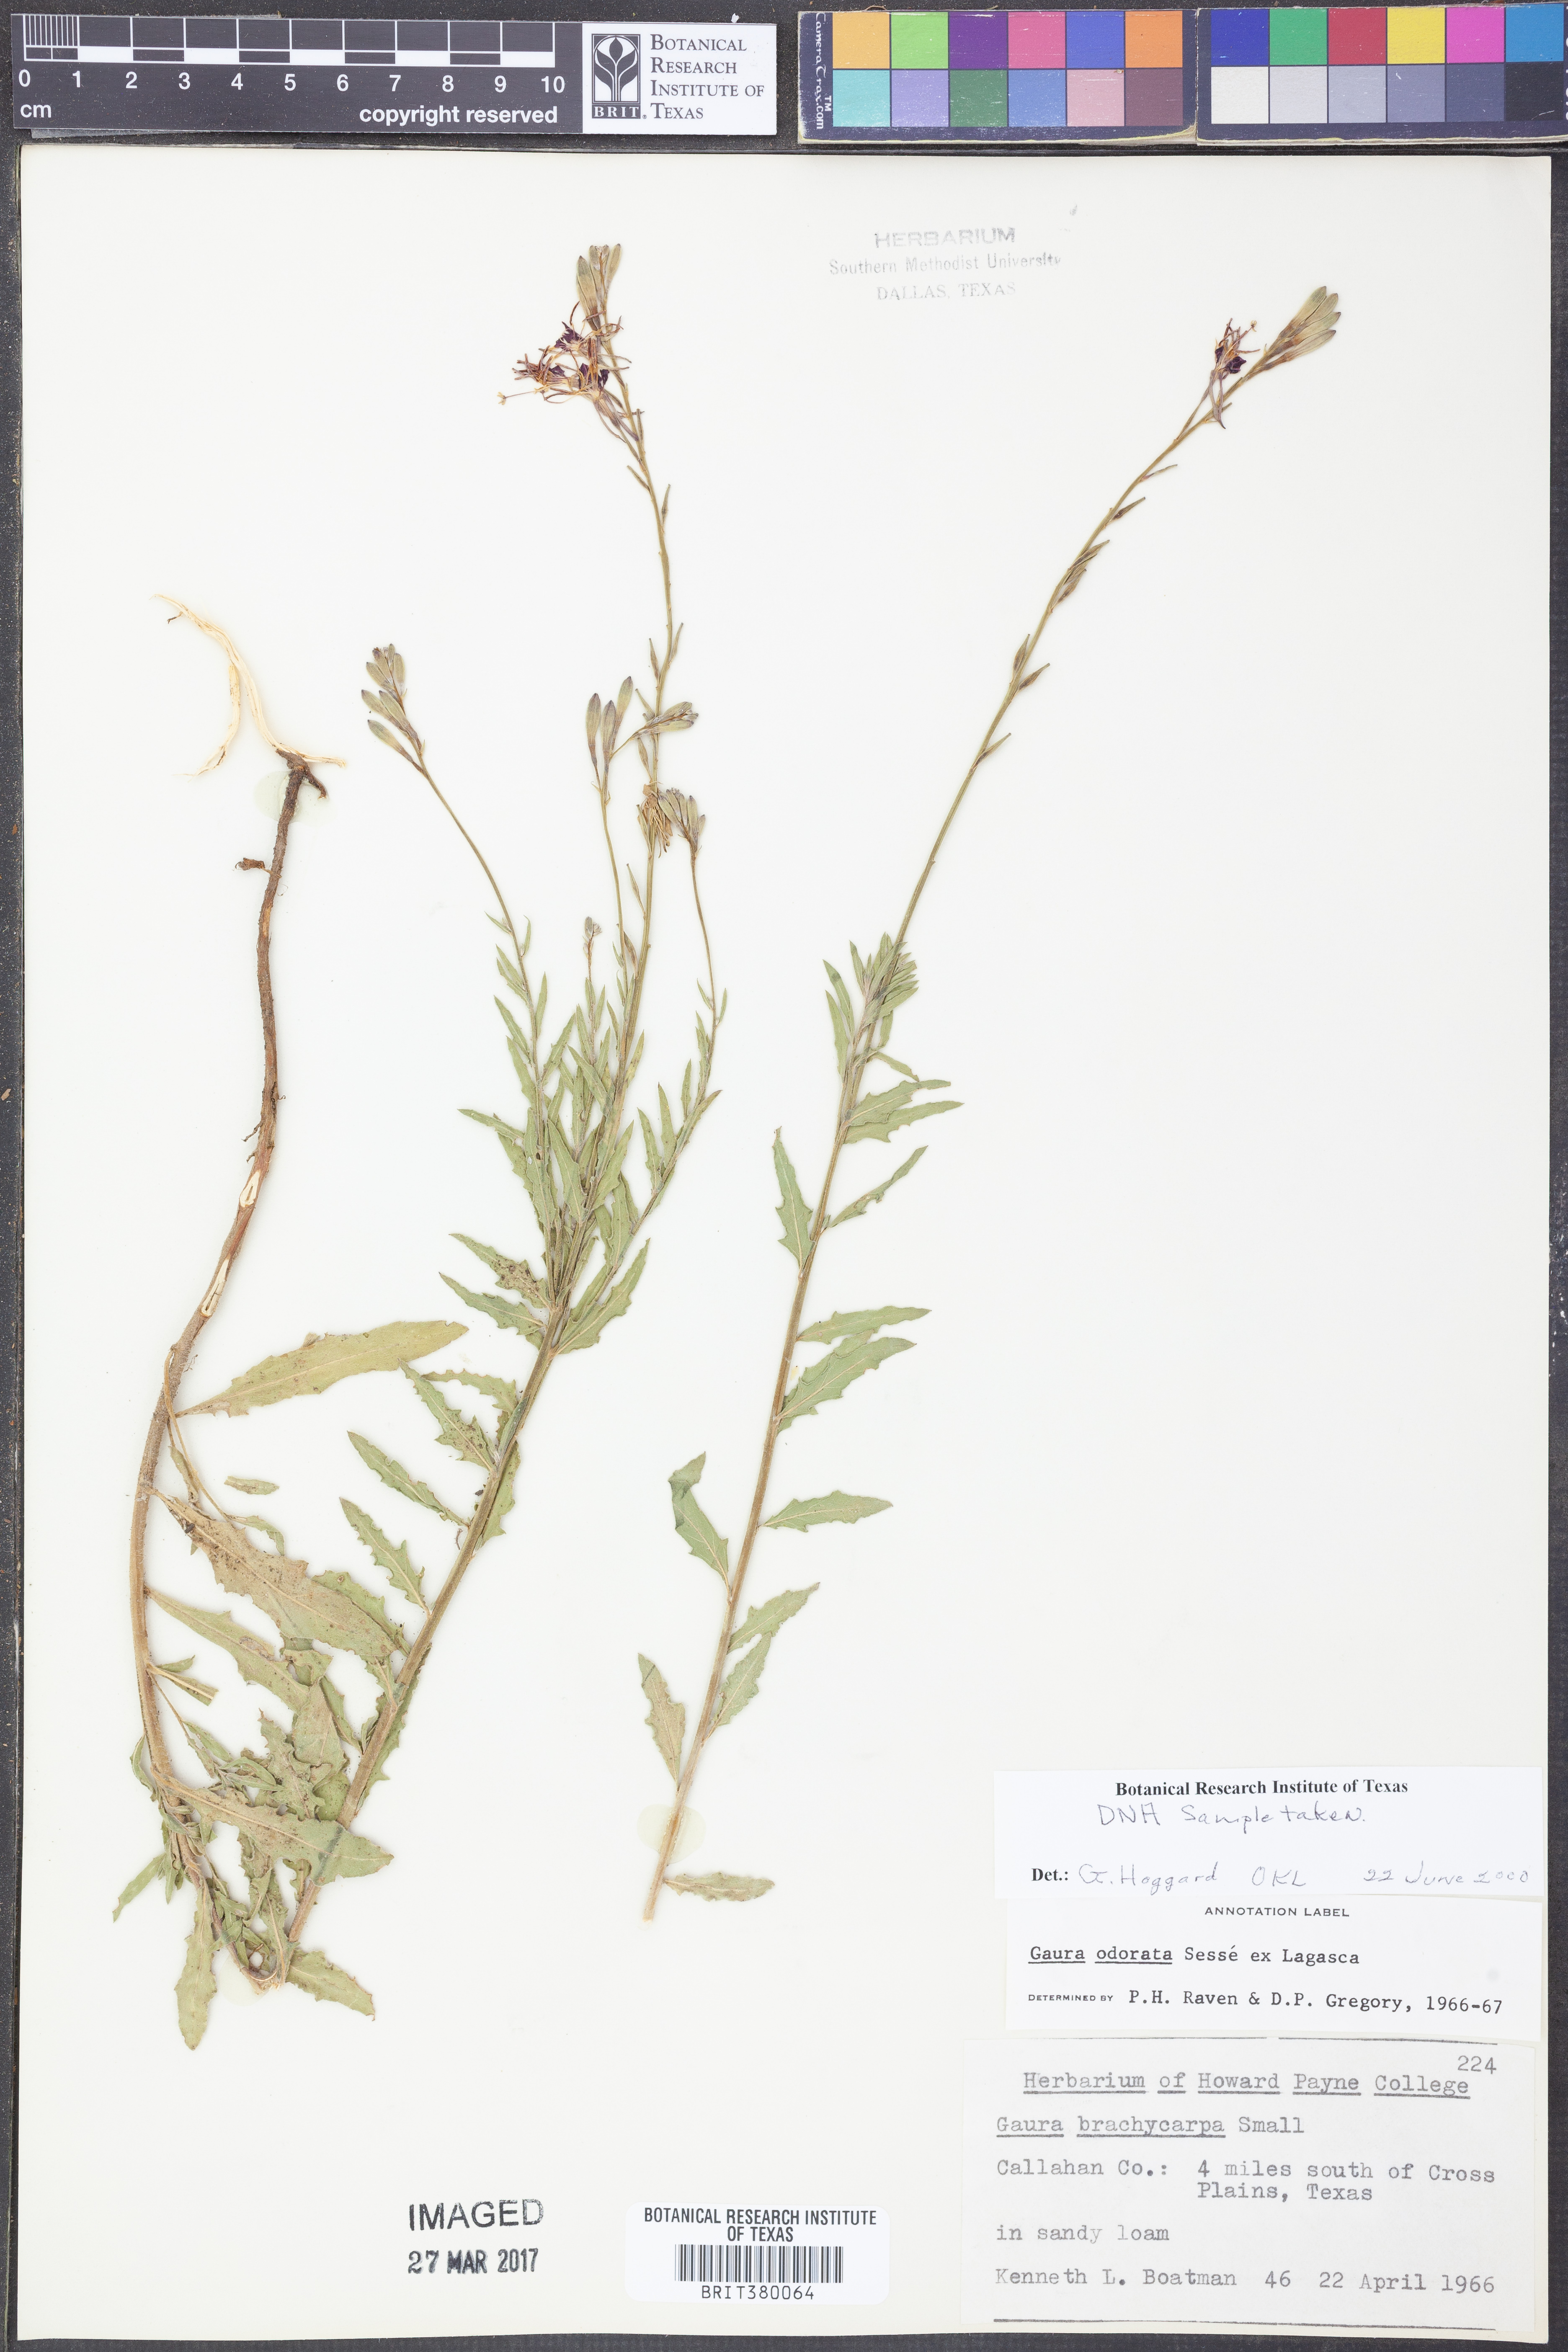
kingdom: Plantae
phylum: Tracheophyta
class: Magnoliopsida
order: Myrtales
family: Onagraceae
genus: Oenothera
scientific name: Oenothera
